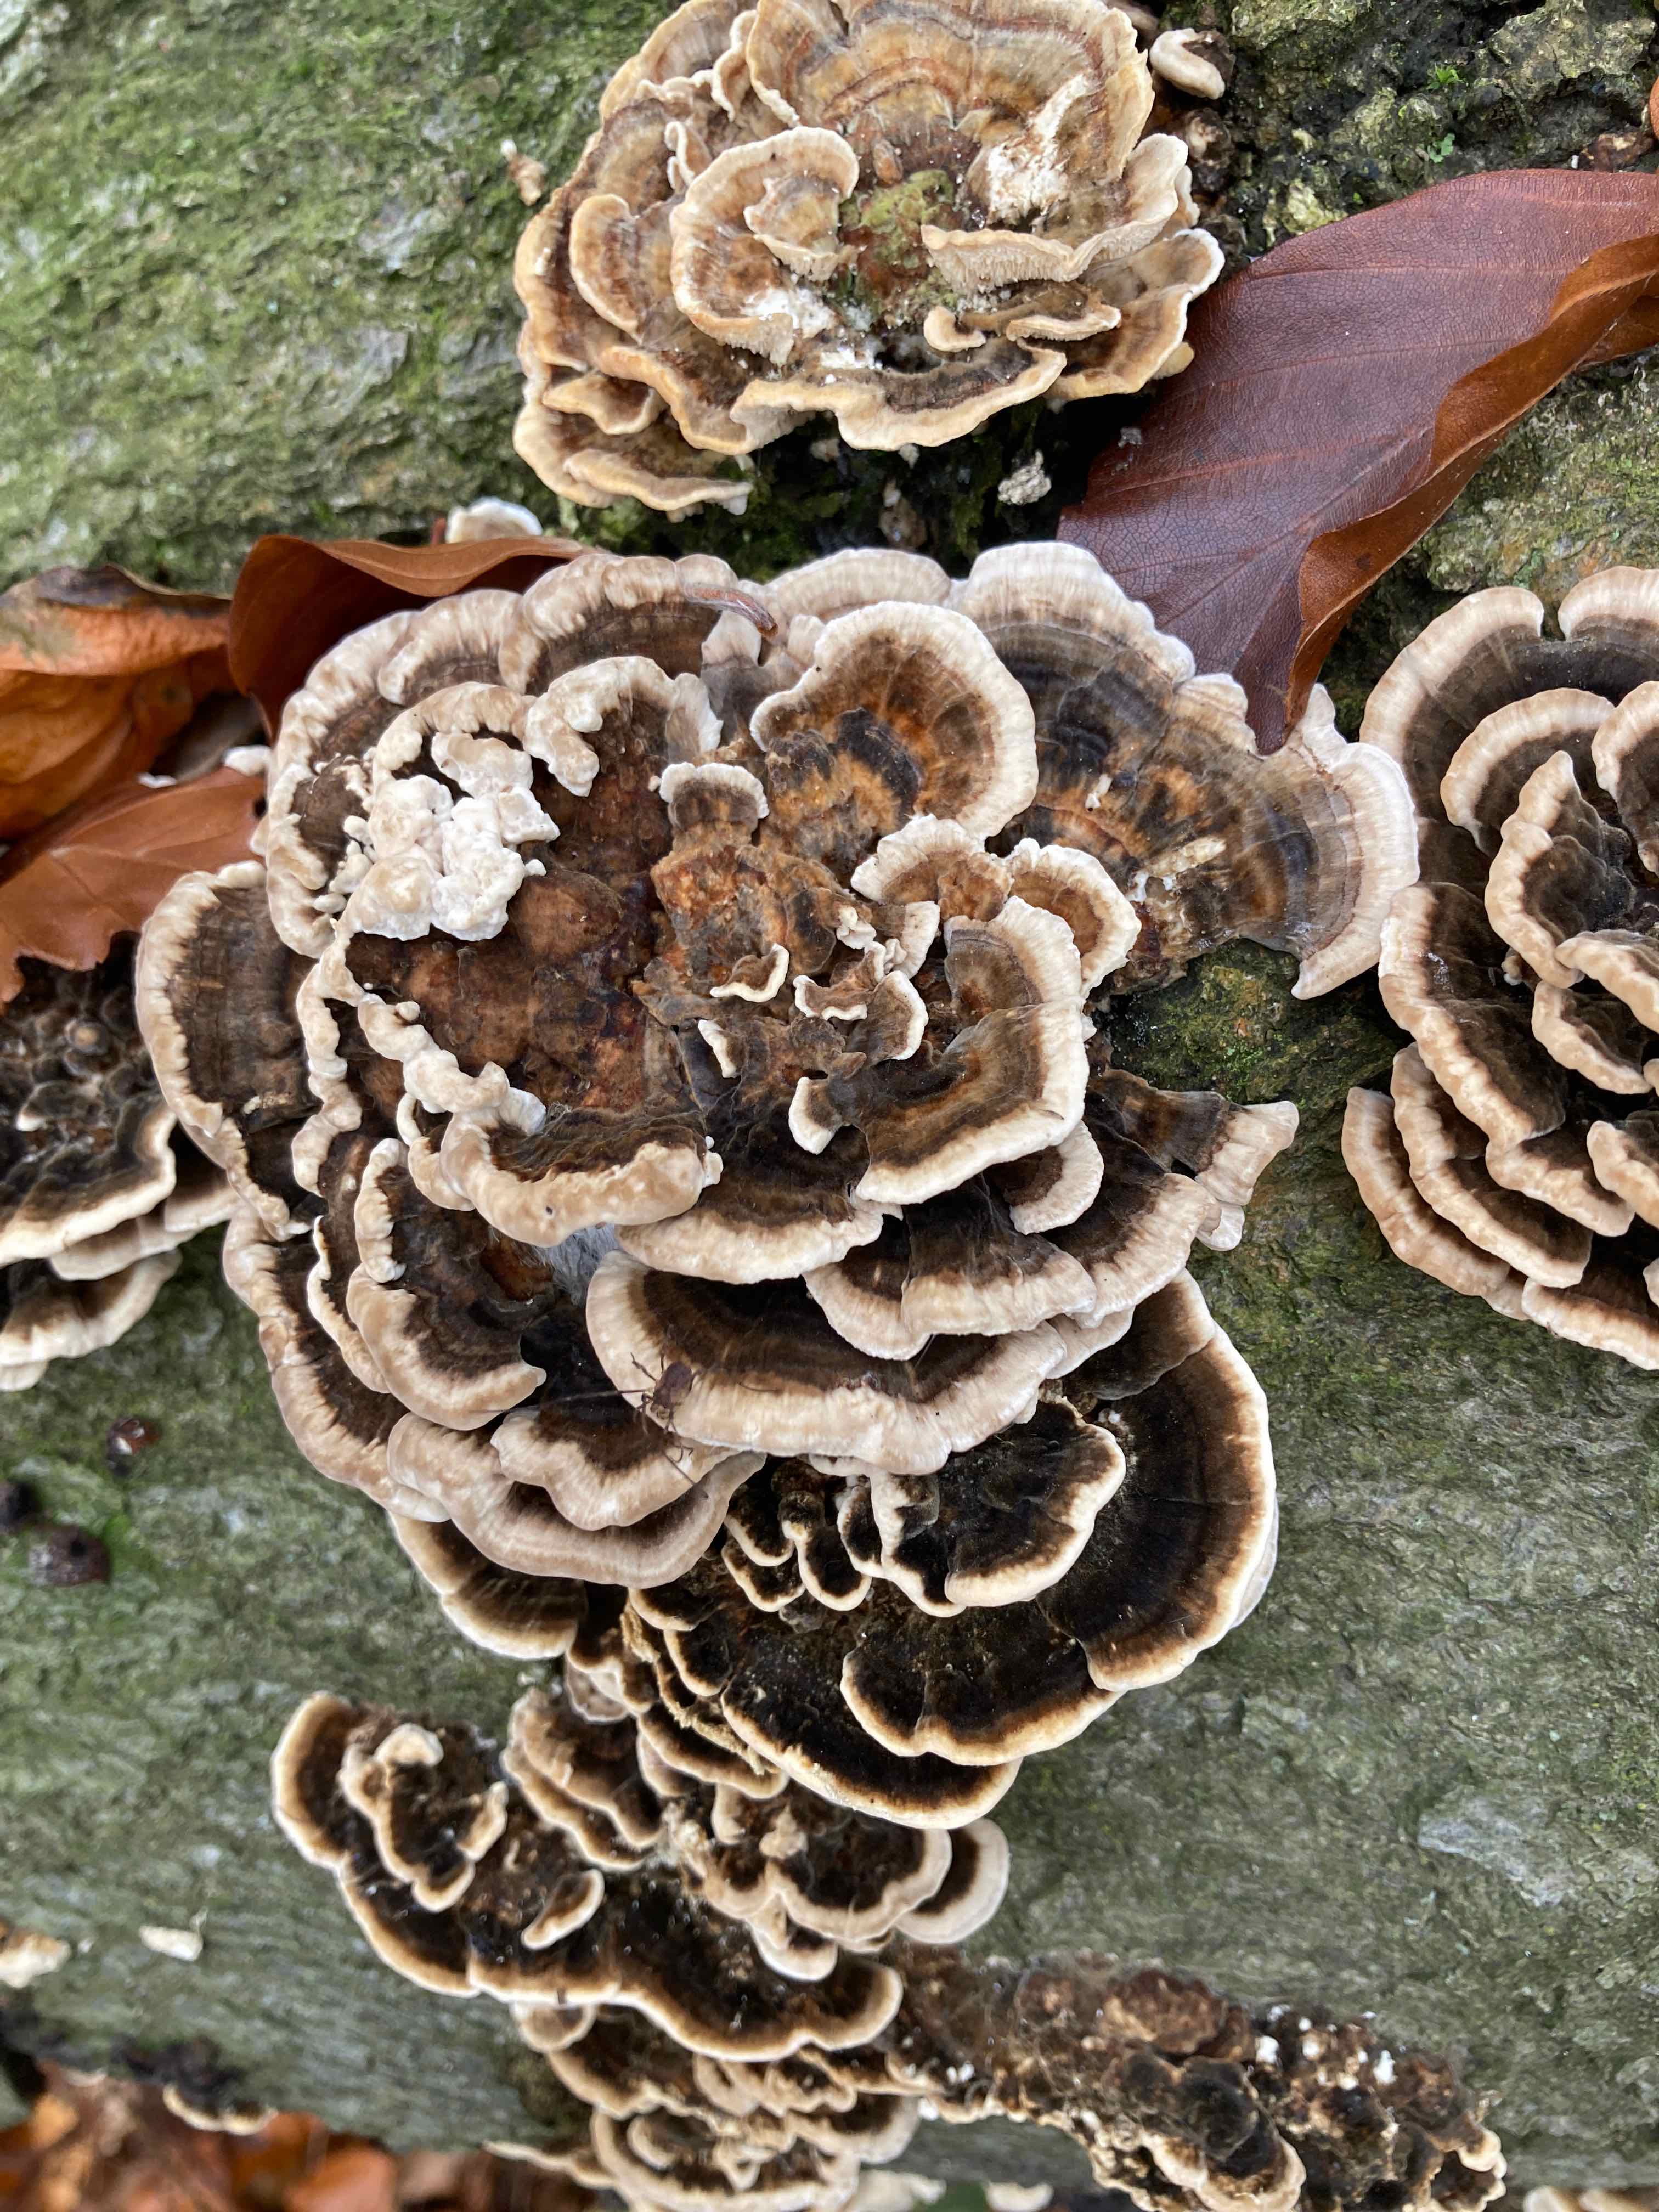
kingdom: Fungi
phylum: Basidiomycota
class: Agaricomycetes
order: Polyporales
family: Polyporaceae
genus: Trametes
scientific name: Trametes versicolor
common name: broget læderporesvamp
